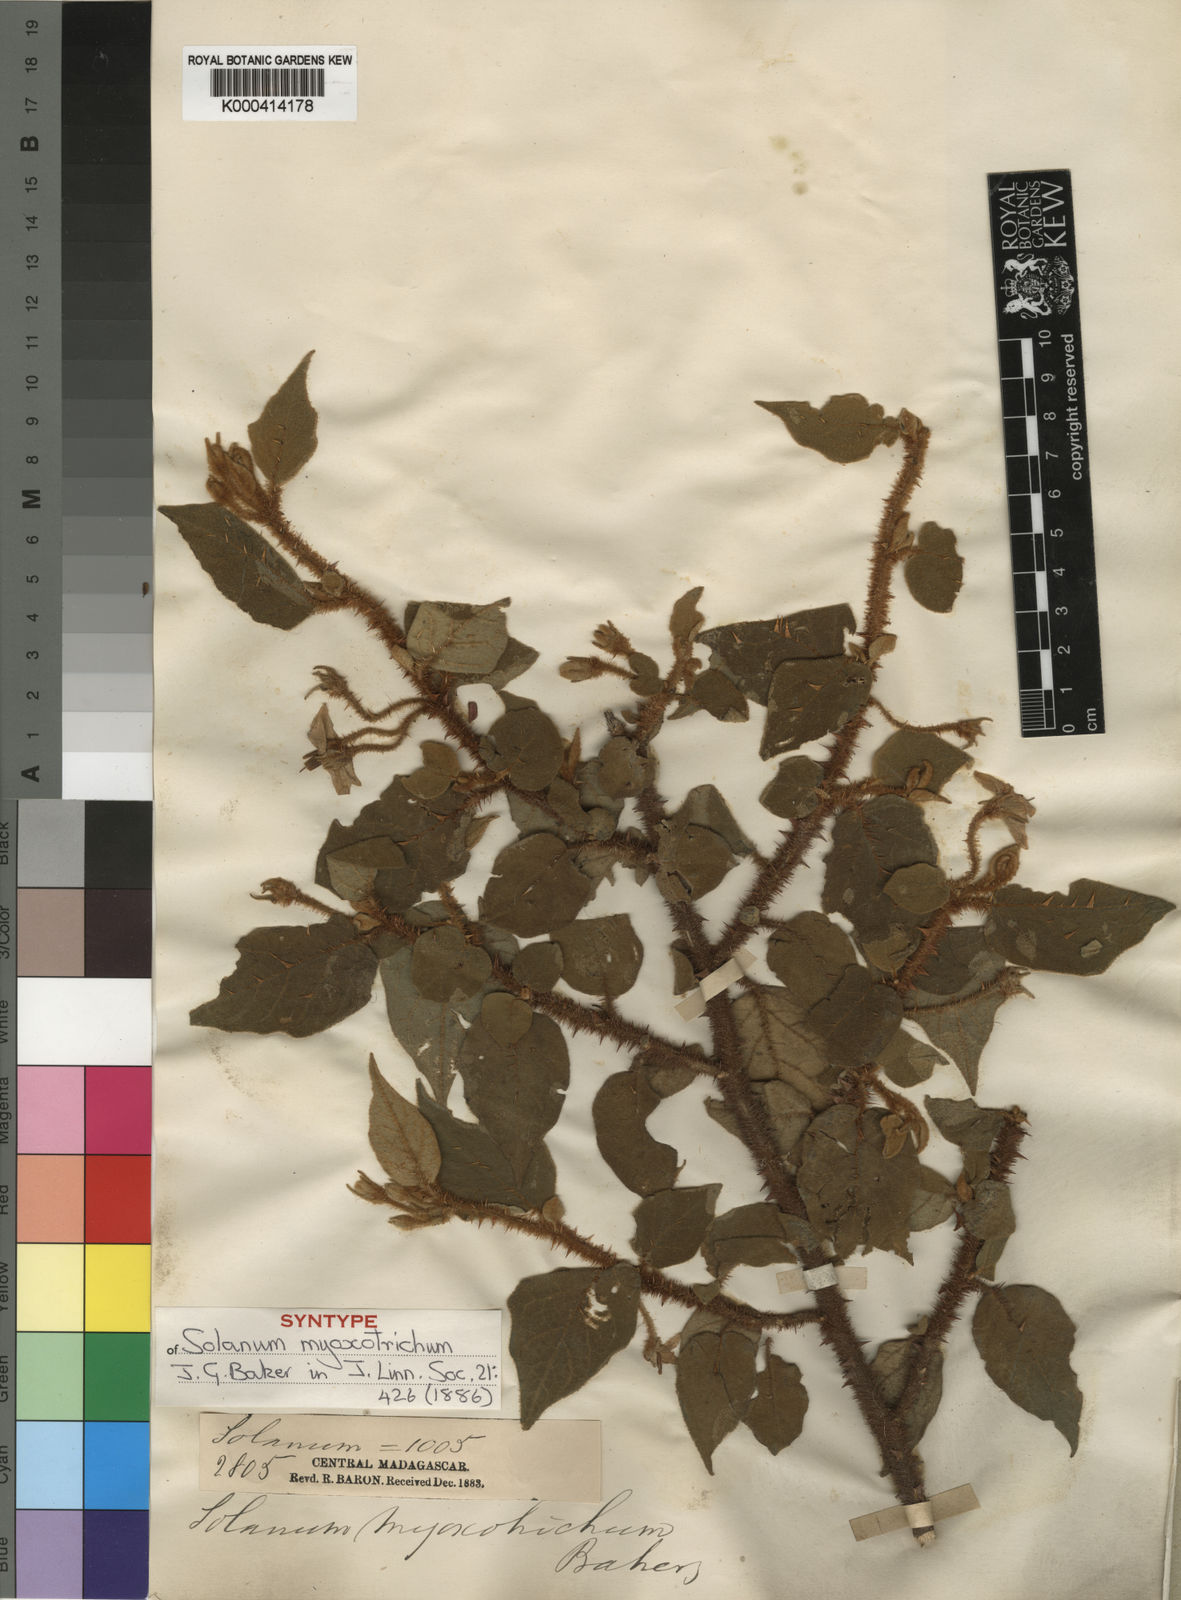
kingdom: Plantae
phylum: Tracheophyta
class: Magnoliopsida
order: Solanales
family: Solanaceae
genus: Solanum
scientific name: Solanum myoxotrichum
